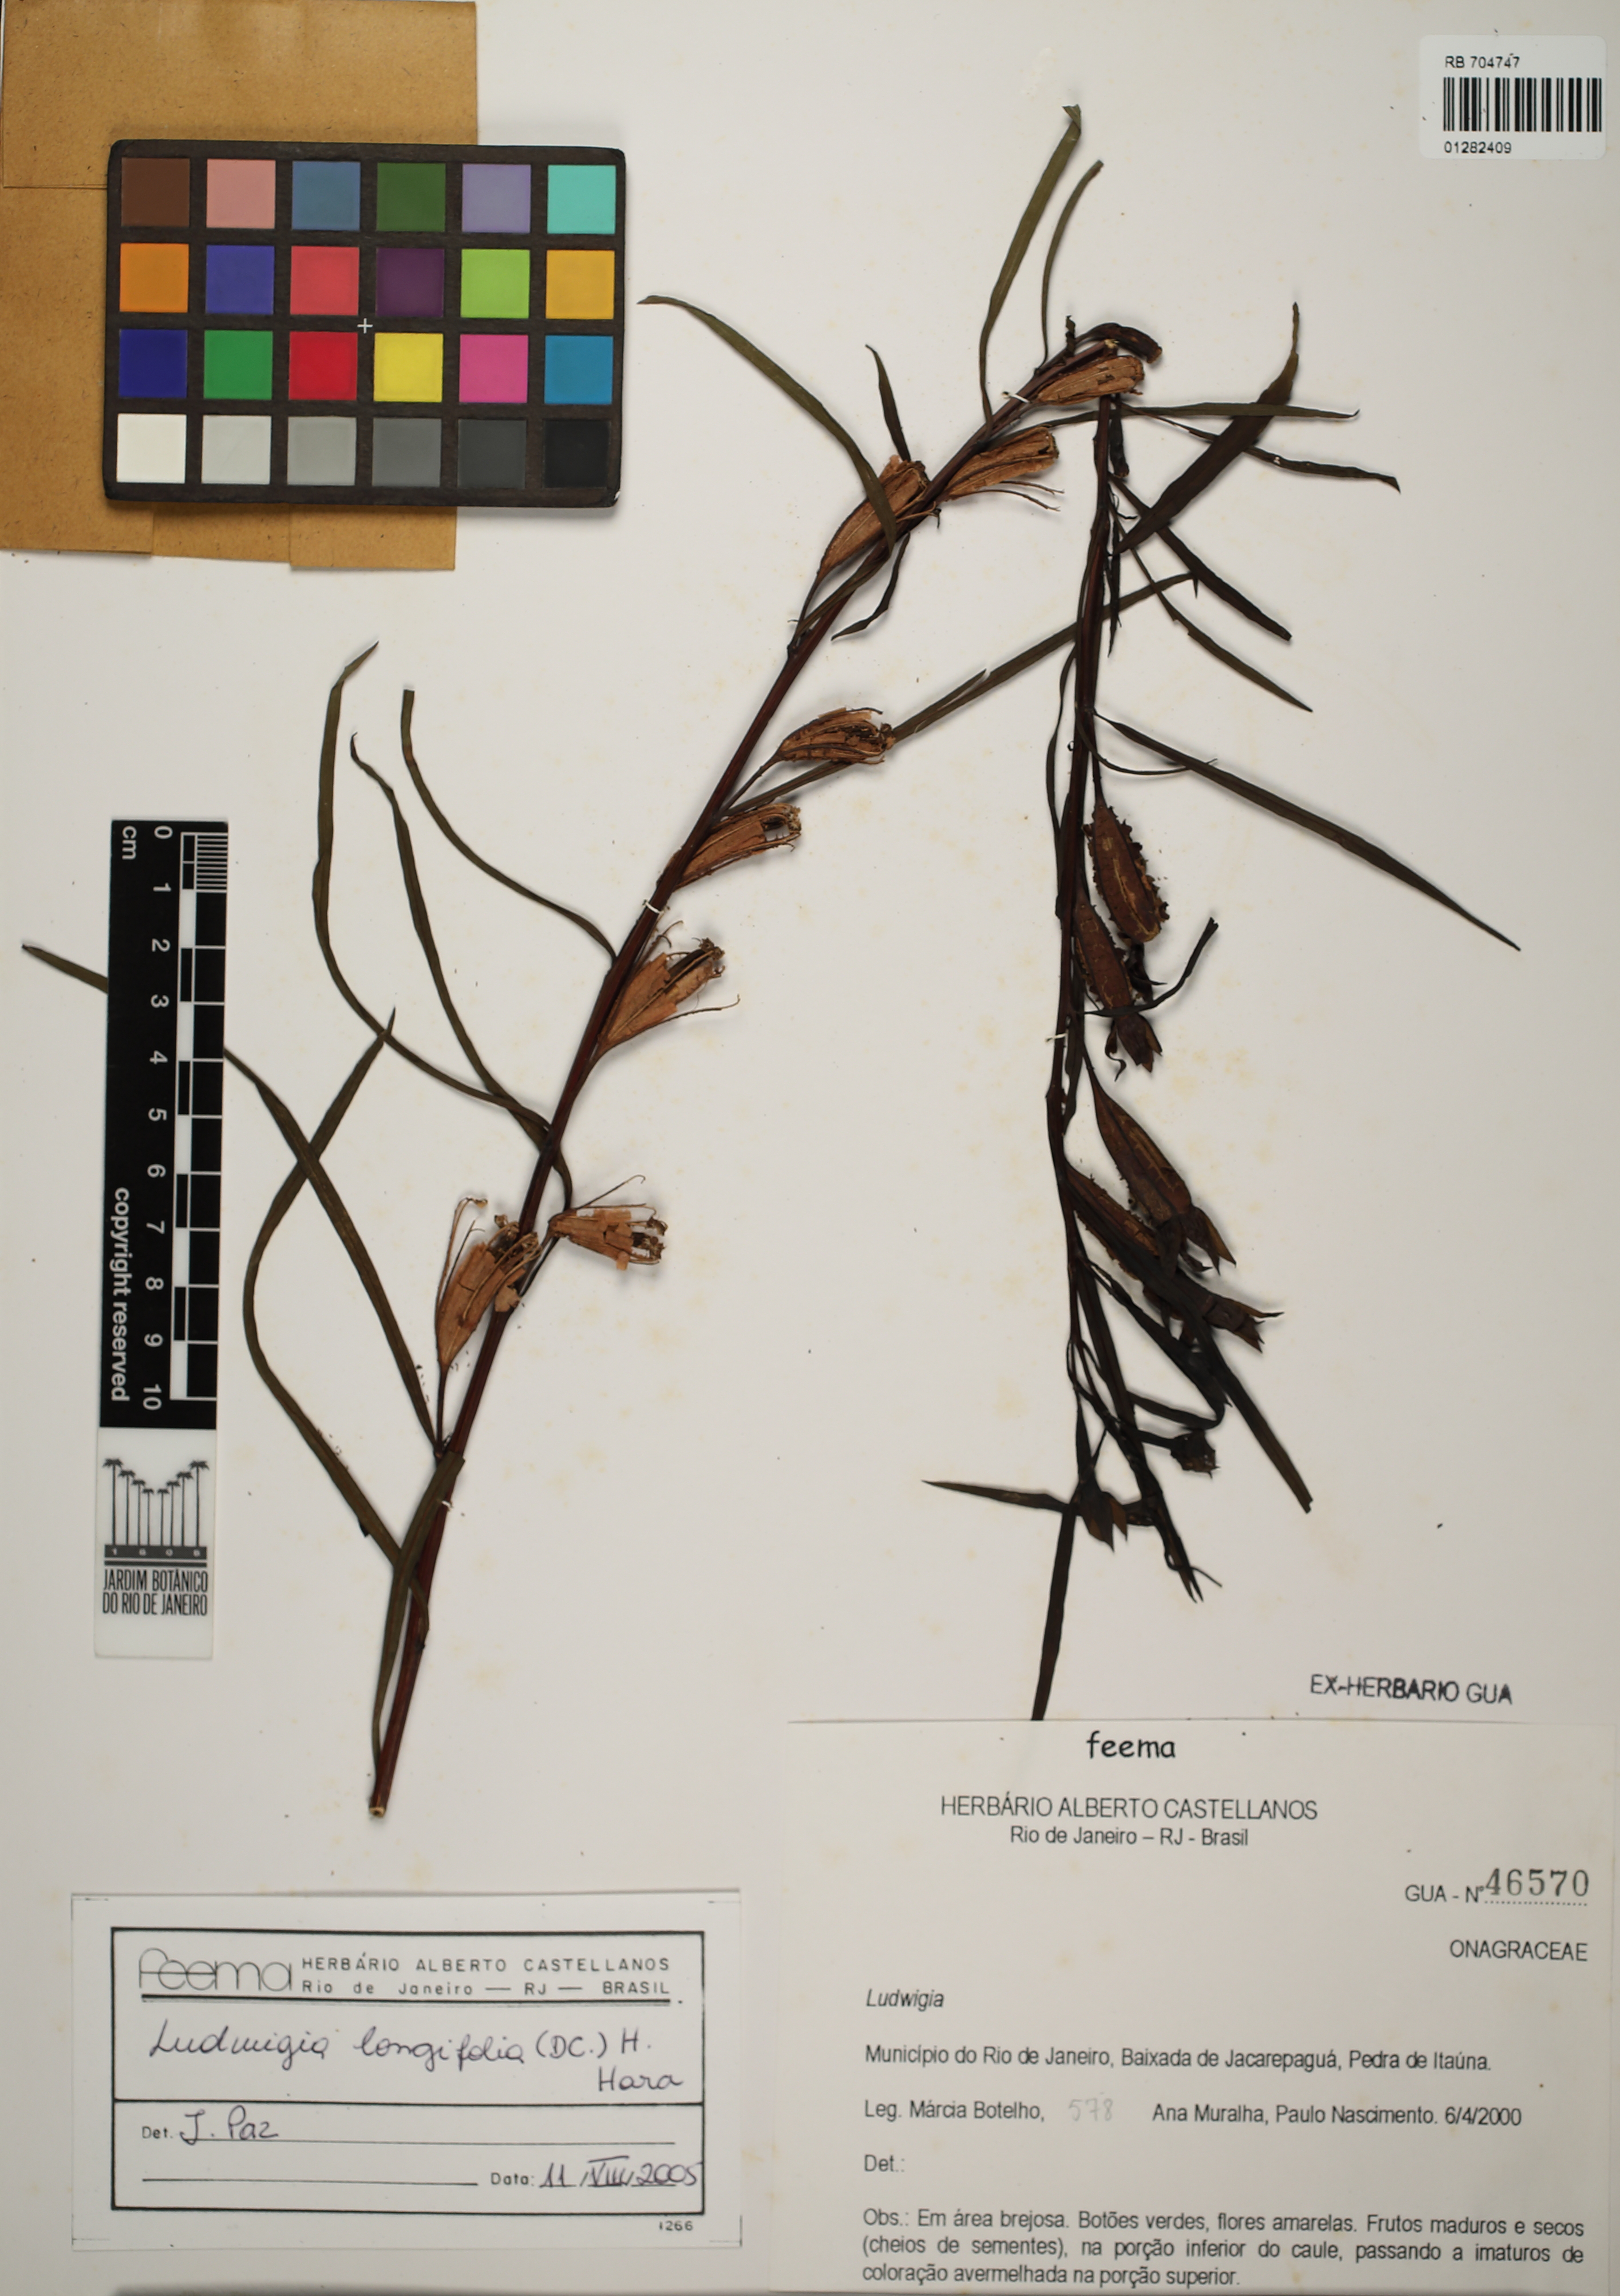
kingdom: Plantae
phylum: Tracheophyta
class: Magnoliopsida
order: Myrtales
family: Onagraceae
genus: Ludwigia
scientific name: Ludwigia longifolia
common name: Longleaf primrose-willow
